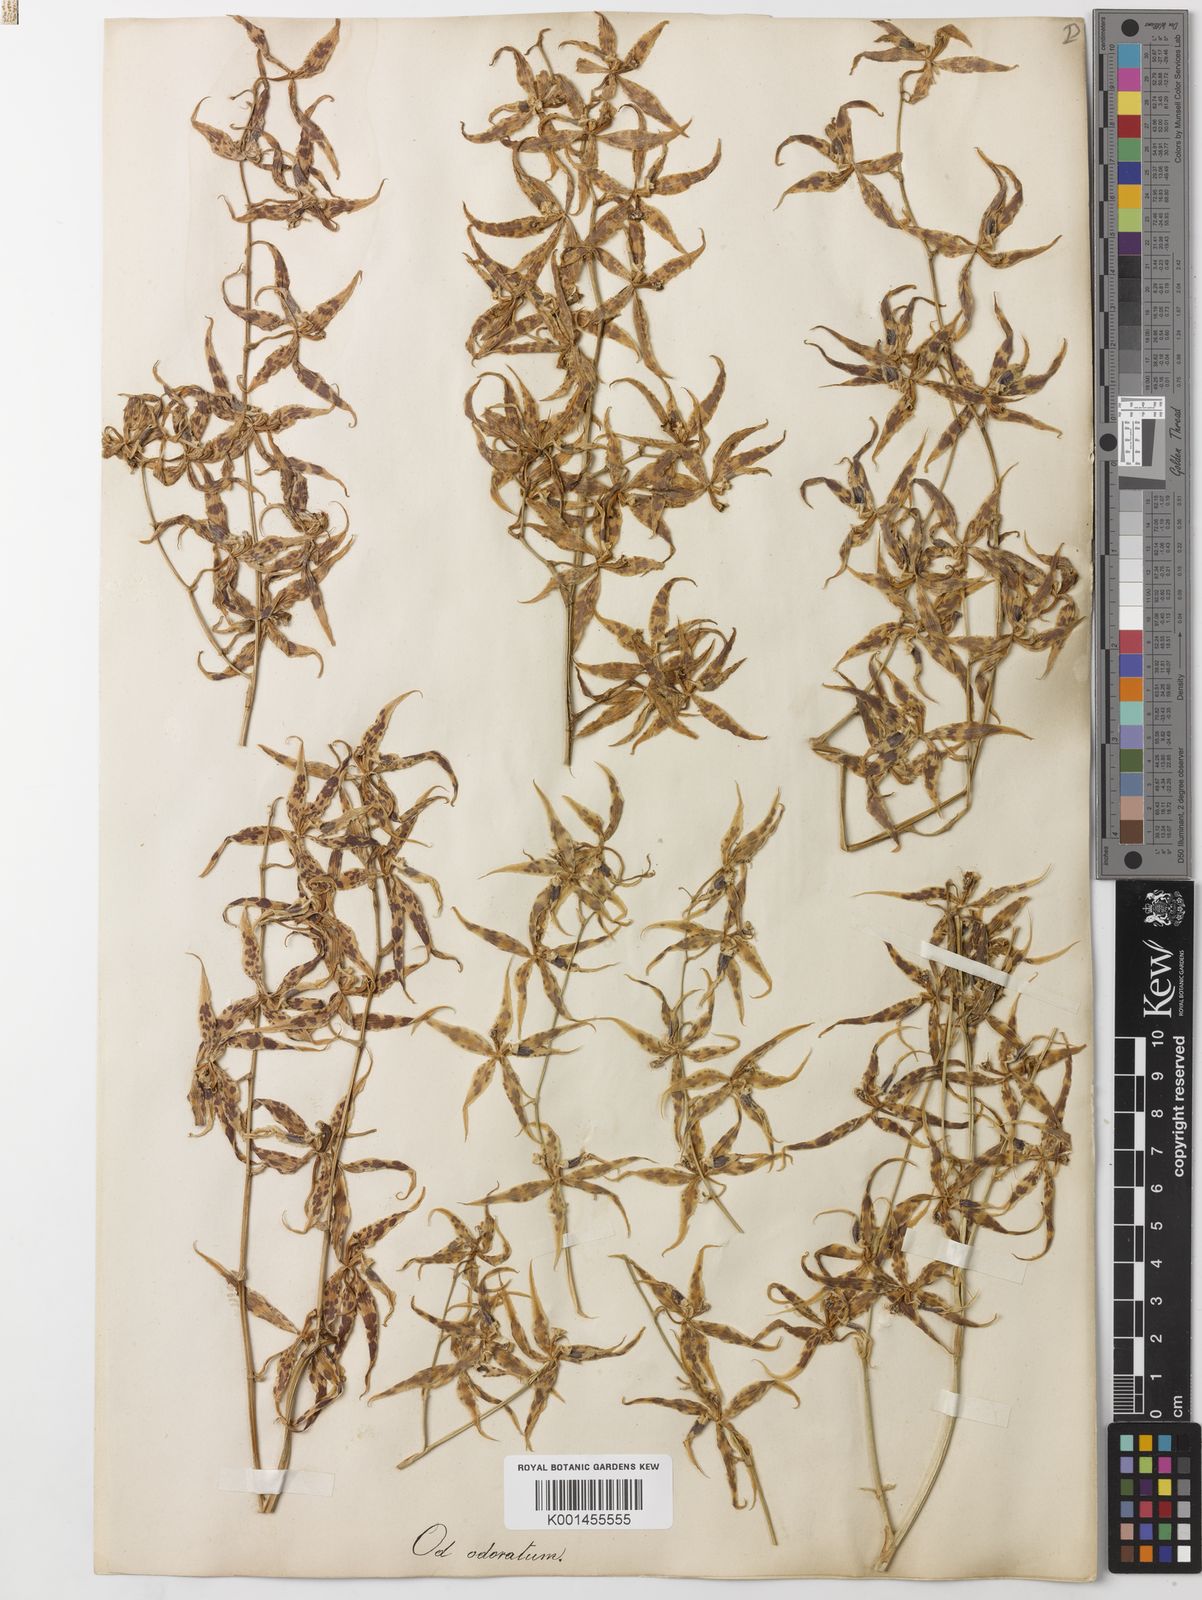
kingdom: Plantae
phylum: Tracheophyta
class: Liliopsida
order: Asparagales
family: Orchidaceae
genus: Oncidium
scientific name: Oncidium odoratum
